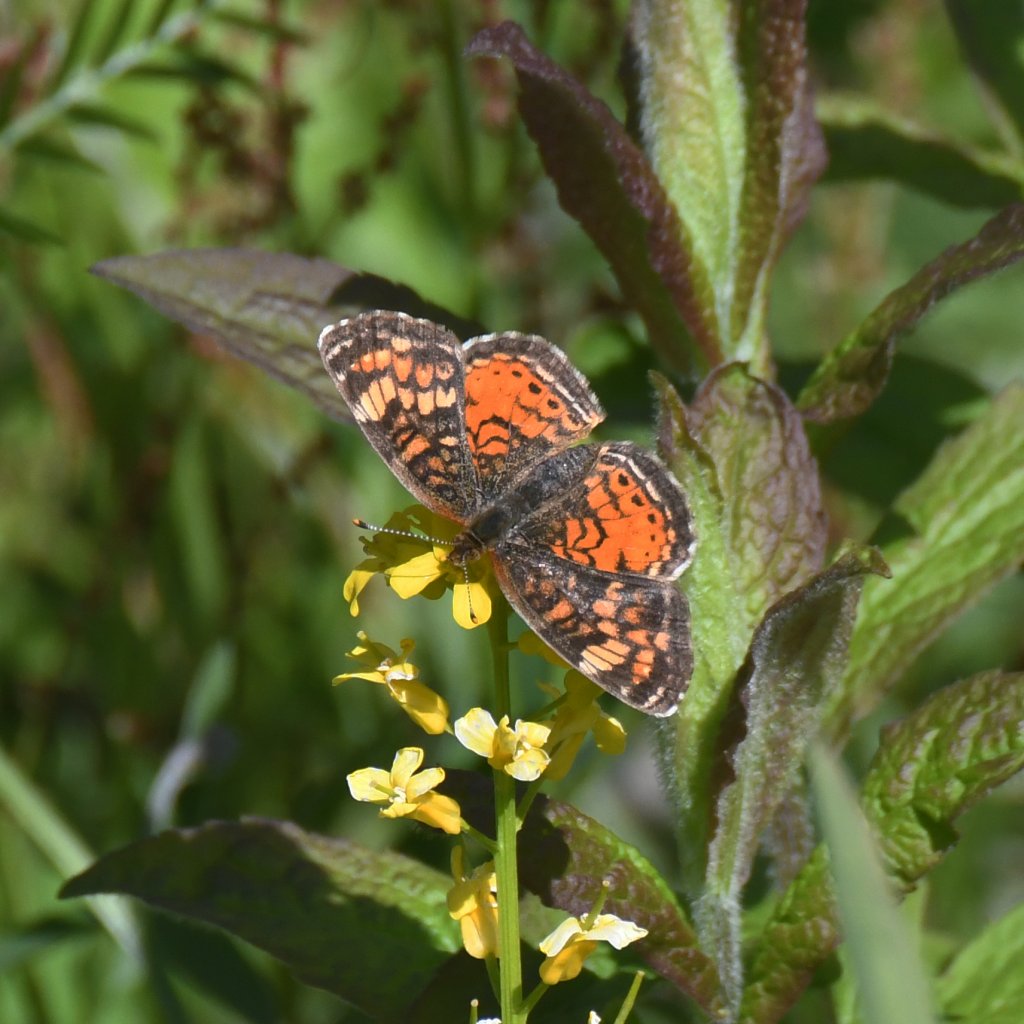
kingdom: Animalia
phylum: Arthropoda
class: Insecta
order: Lepidoptera
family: Nymphalidae
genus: Phyciodes
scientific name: Phyciodes tharos
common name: Northern Crescent
